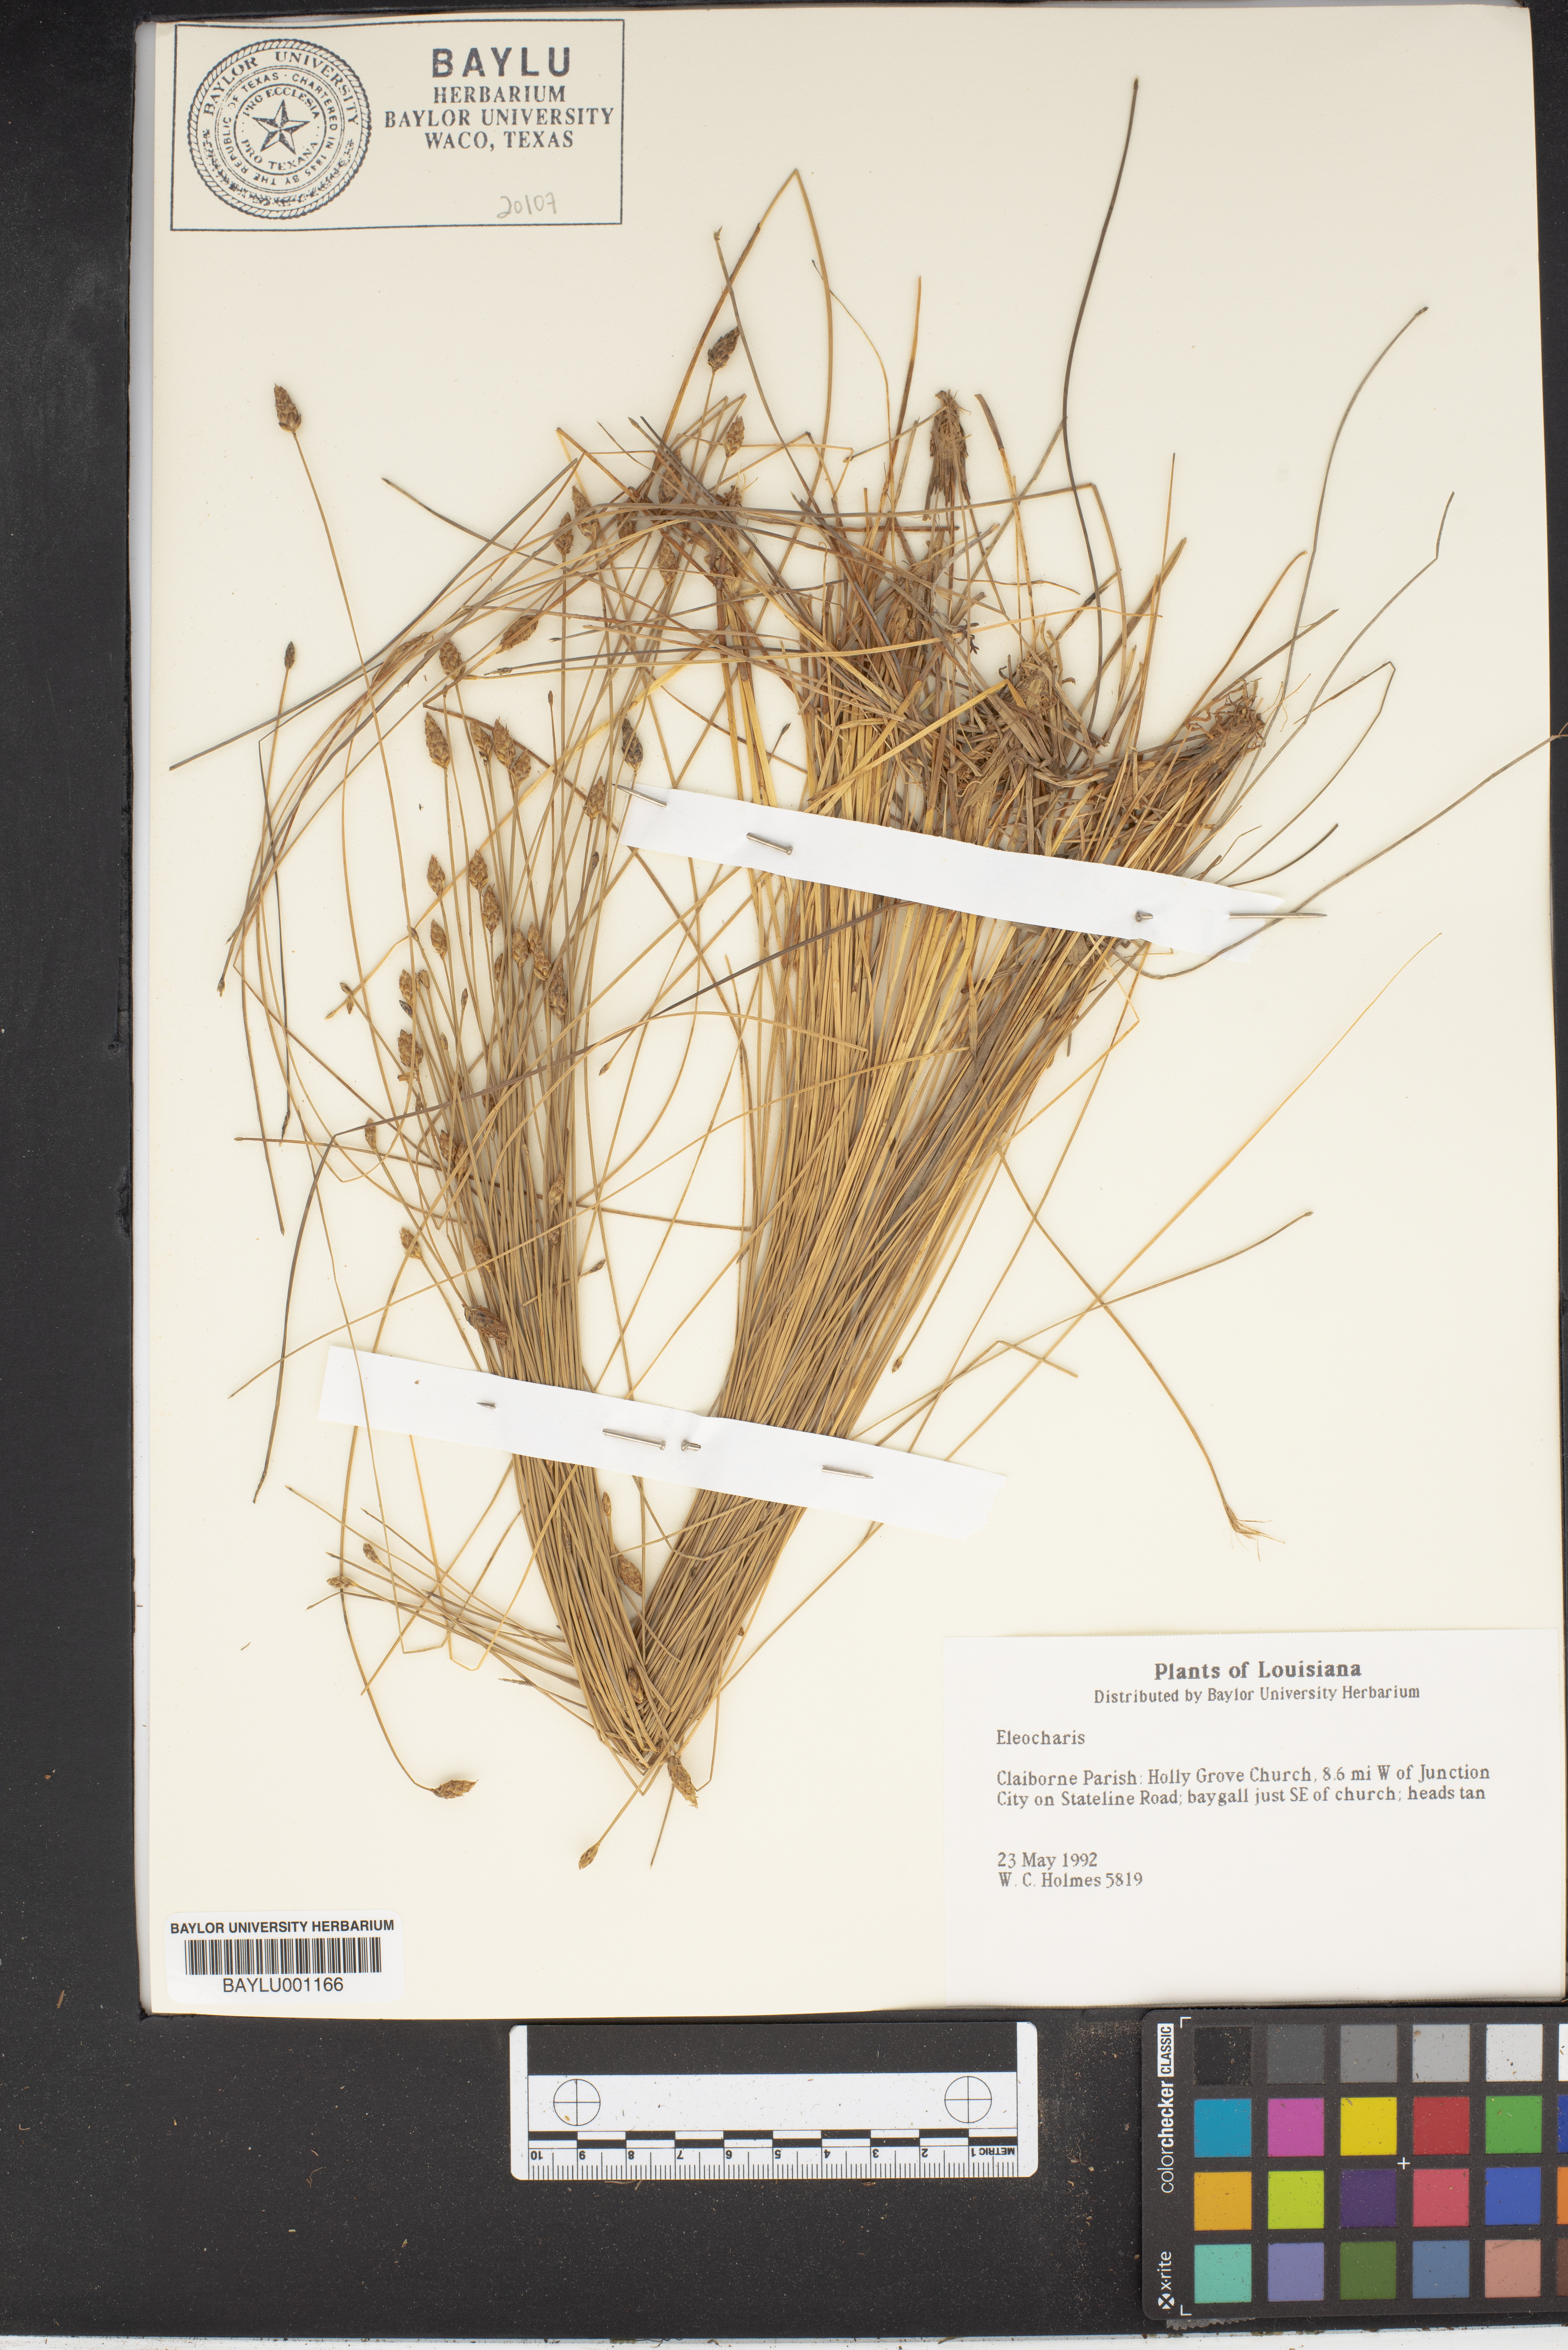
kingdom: Plantae
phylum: Tracheophyta
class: Liliopsida
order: Poales
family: Cyperaceae
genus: Eleocharis
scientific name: Eleocharis
